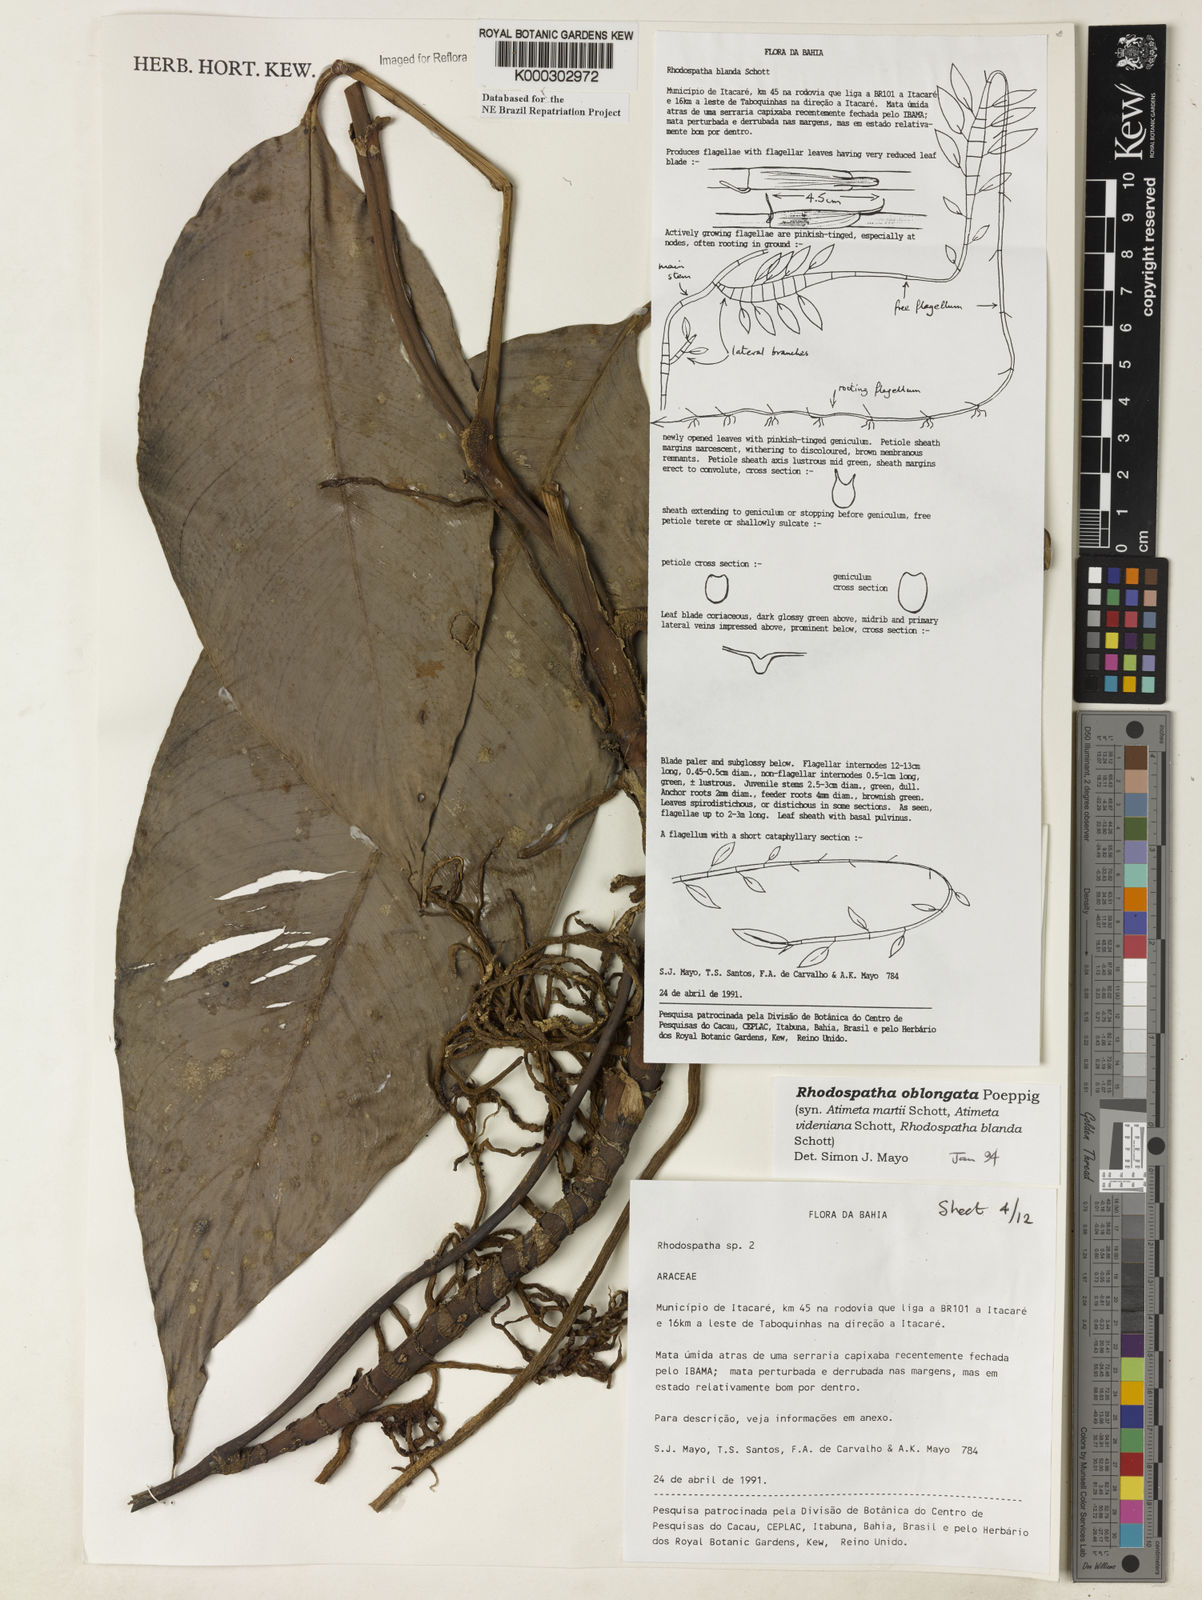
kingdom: Plantae
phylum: Tracheophyta
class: Liliopsida
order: Alismatales
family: Araceae
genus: Rhodospatha
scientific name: Rhodospatha oblongata
